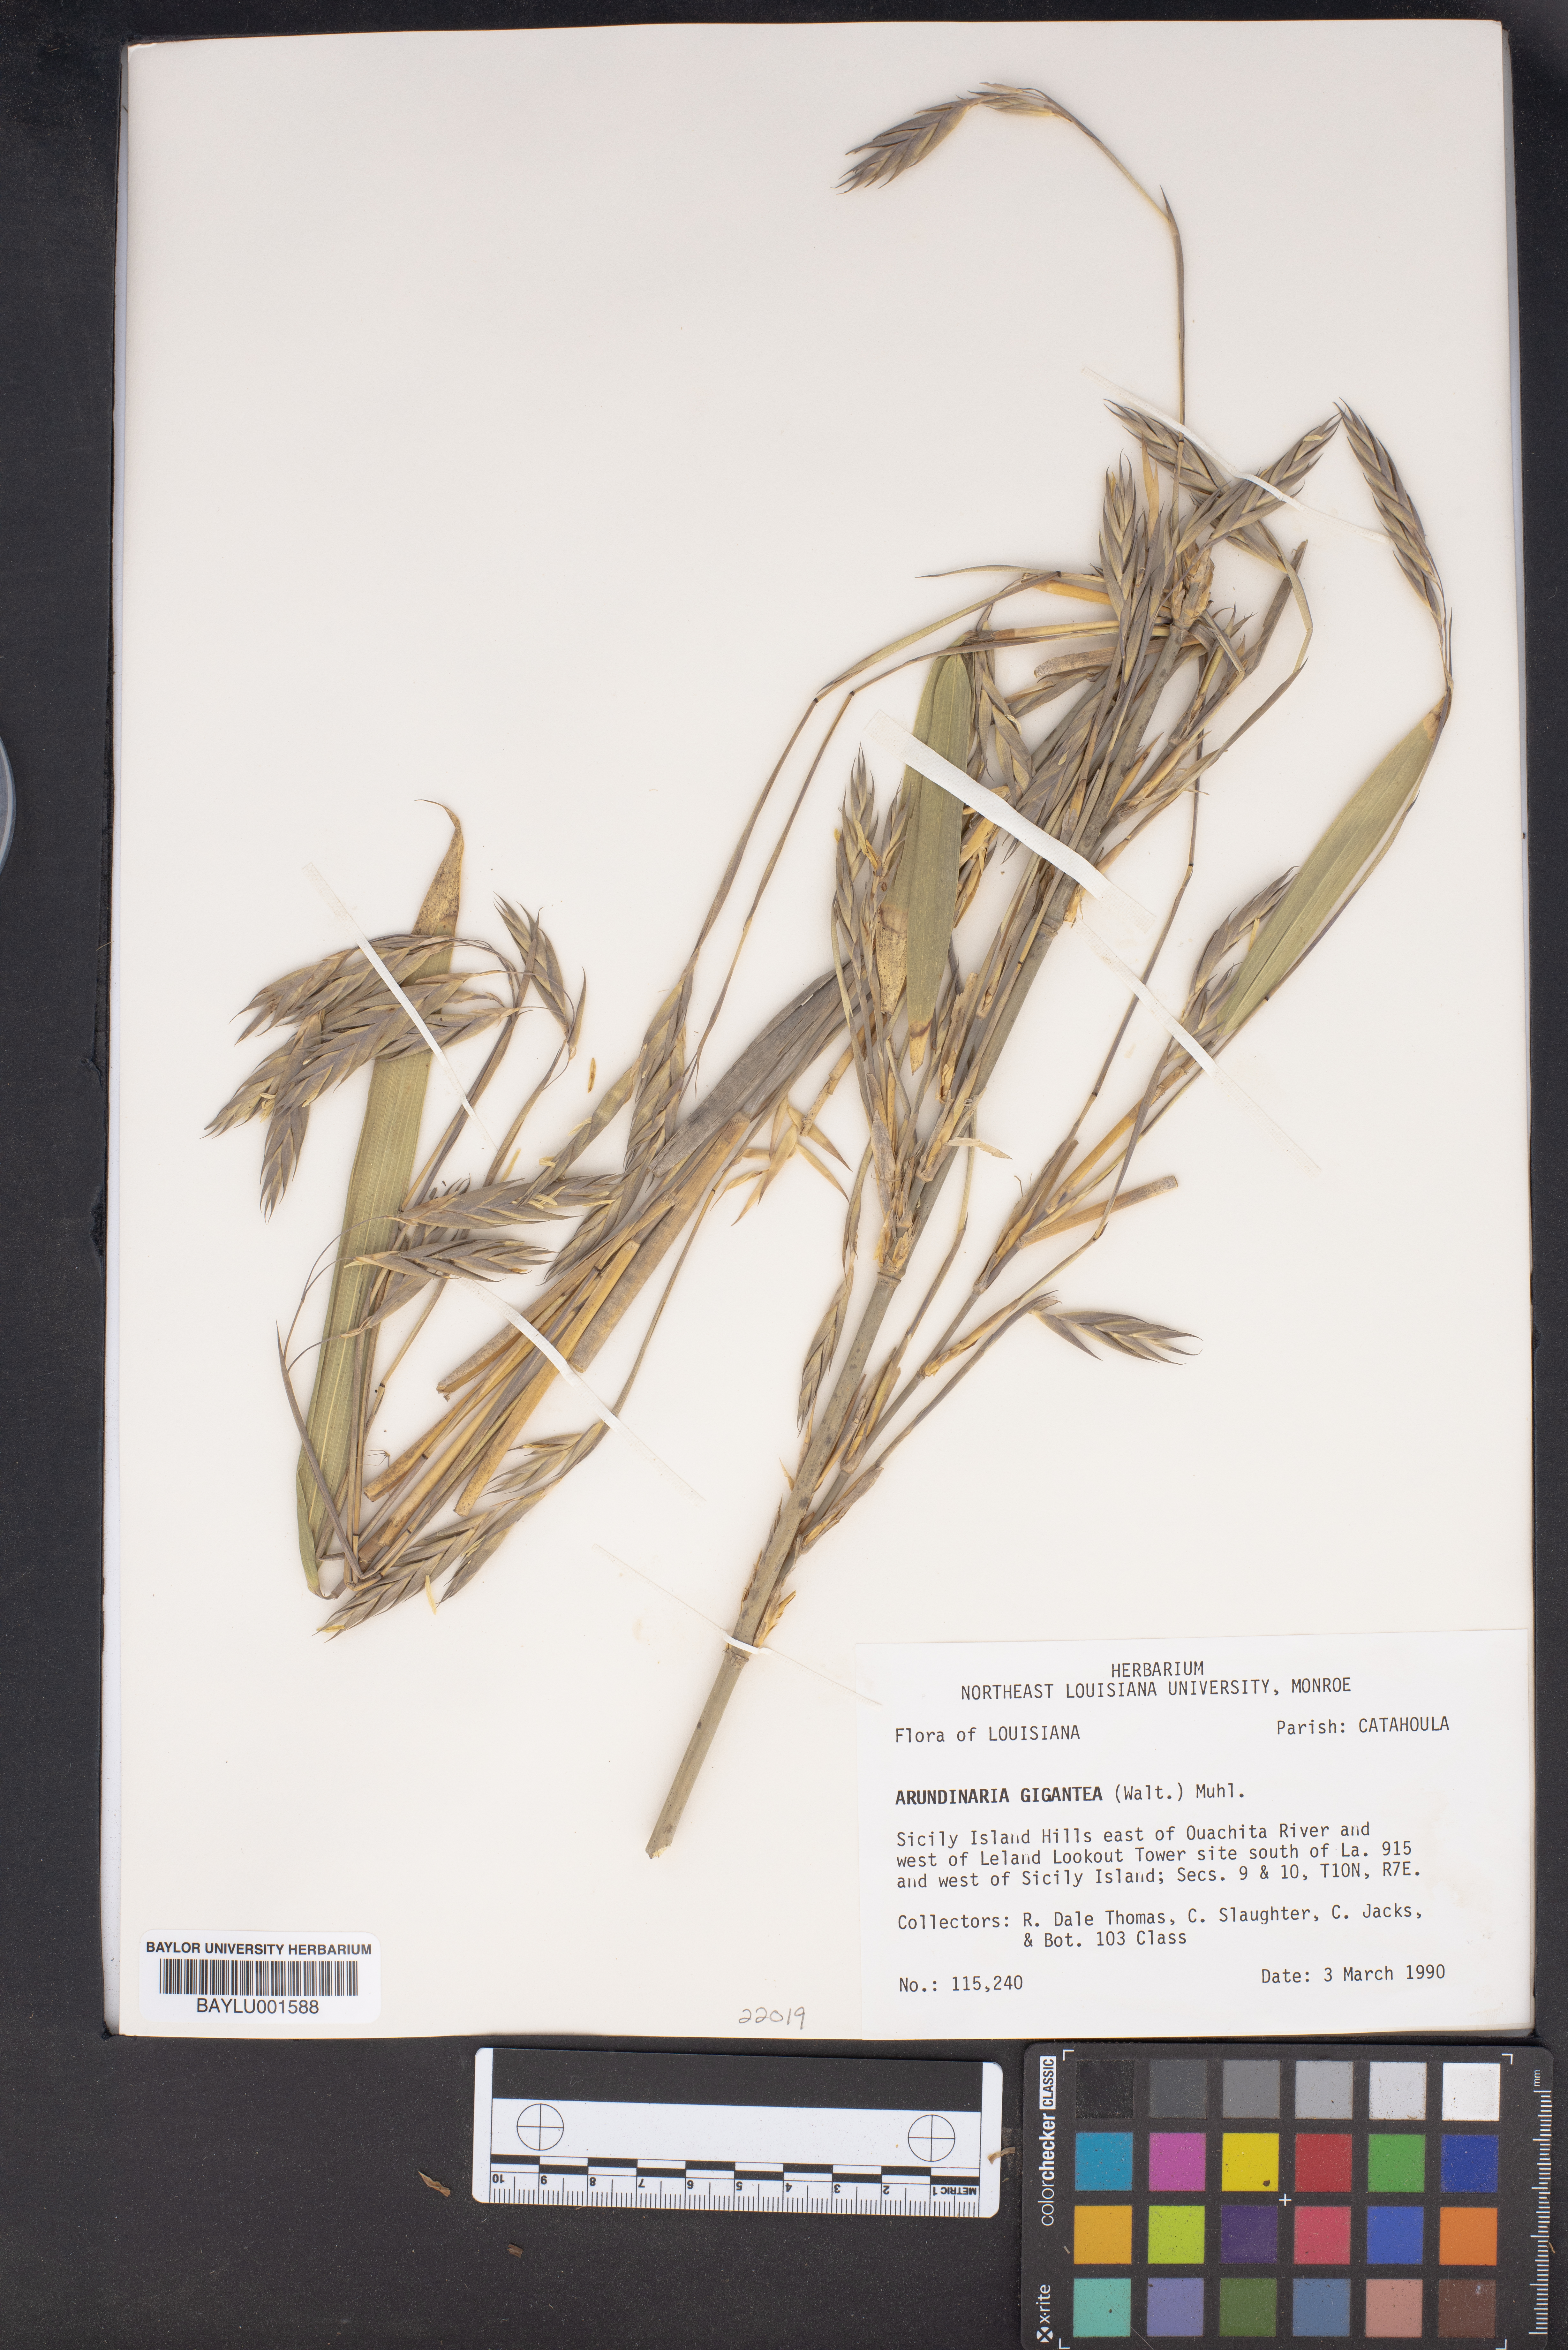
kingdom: Plantae
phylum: Tracheophyta
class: Liliopsida
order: Poales
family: Poaceae
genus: Arundinaria
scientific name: Arundinaria gigantea
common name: Giant cane
